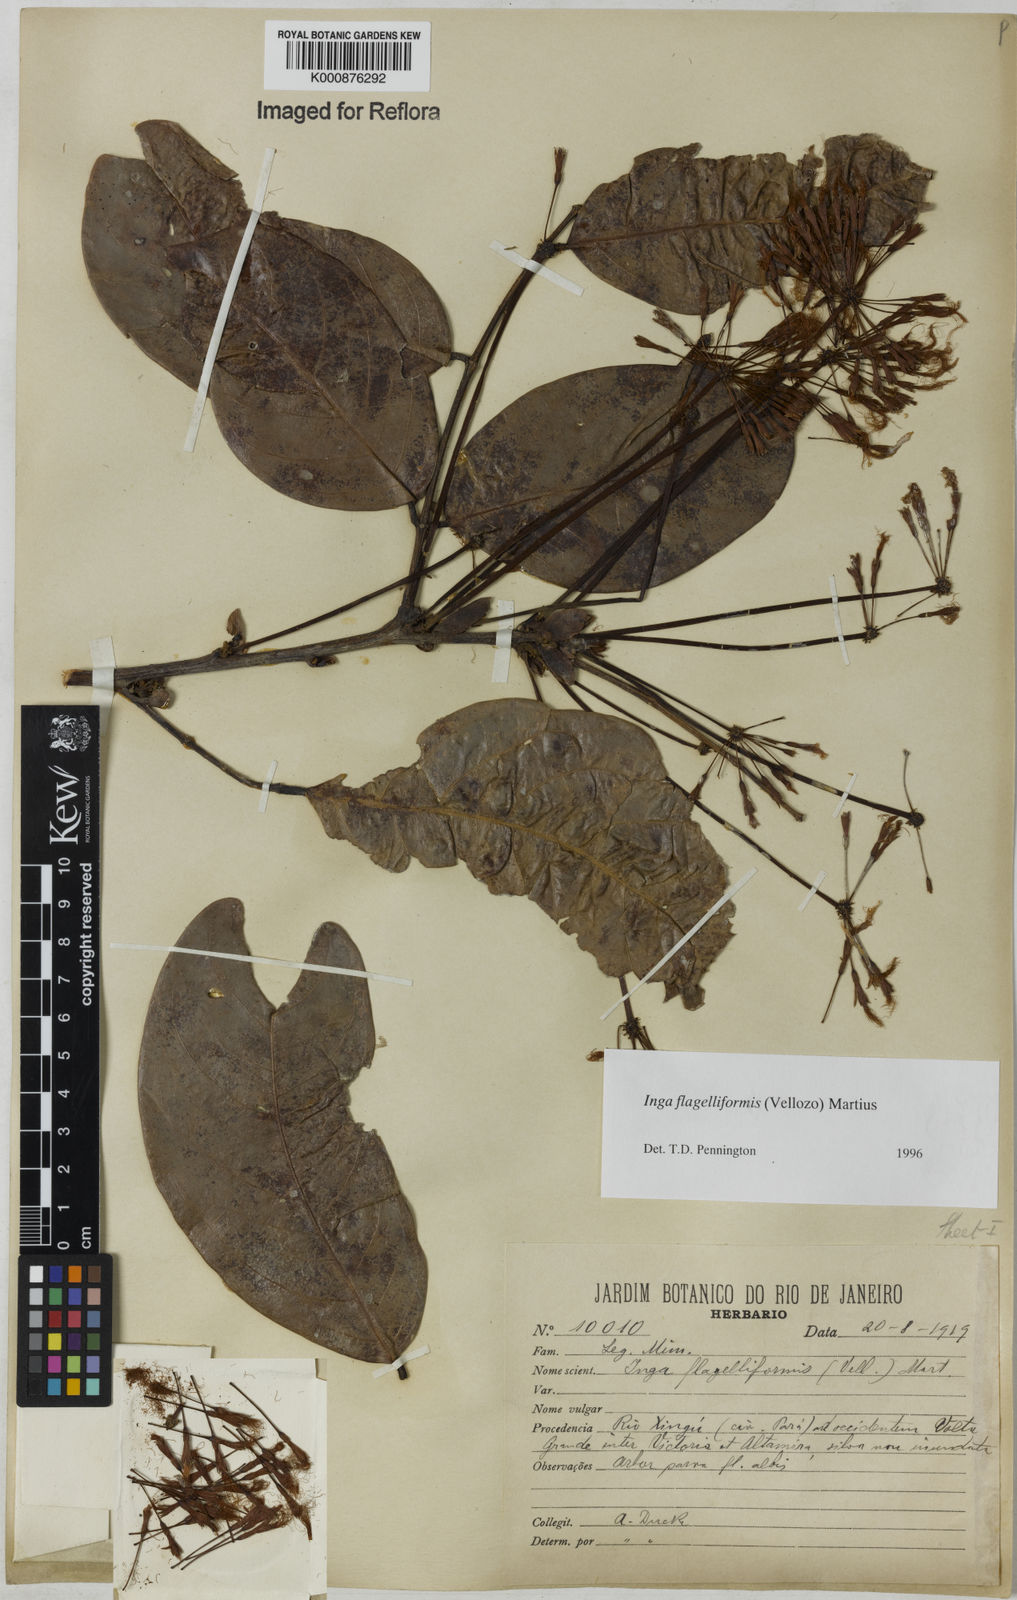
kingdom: Plantae
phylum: Tracheophyta
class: Magnoliopsida
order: Fabales
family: Fabaceae
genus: Inga
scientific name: Inga flagelliformis
